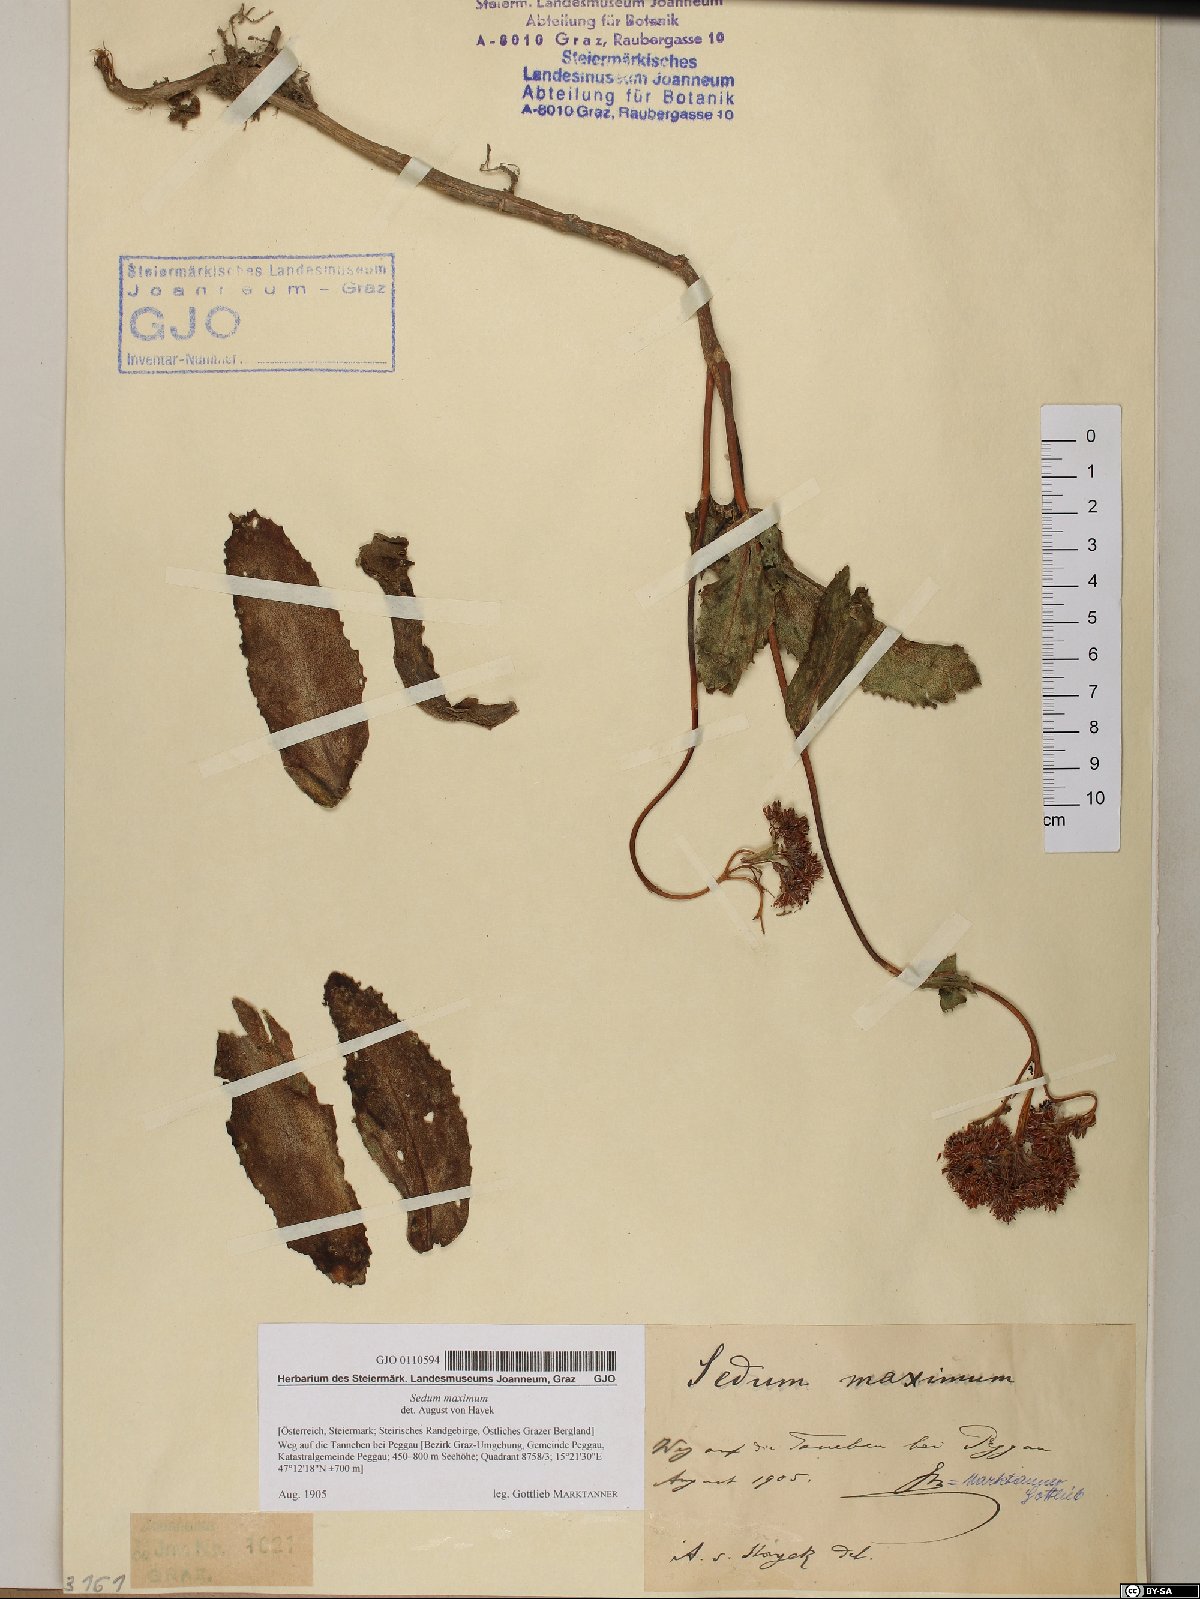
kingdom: Plantae
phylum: Tracheophyta
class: Magnoliopsida
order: Saxifragales
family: Crassulaceae
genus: Hylotelephium
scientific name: Hylotelephium maximum
